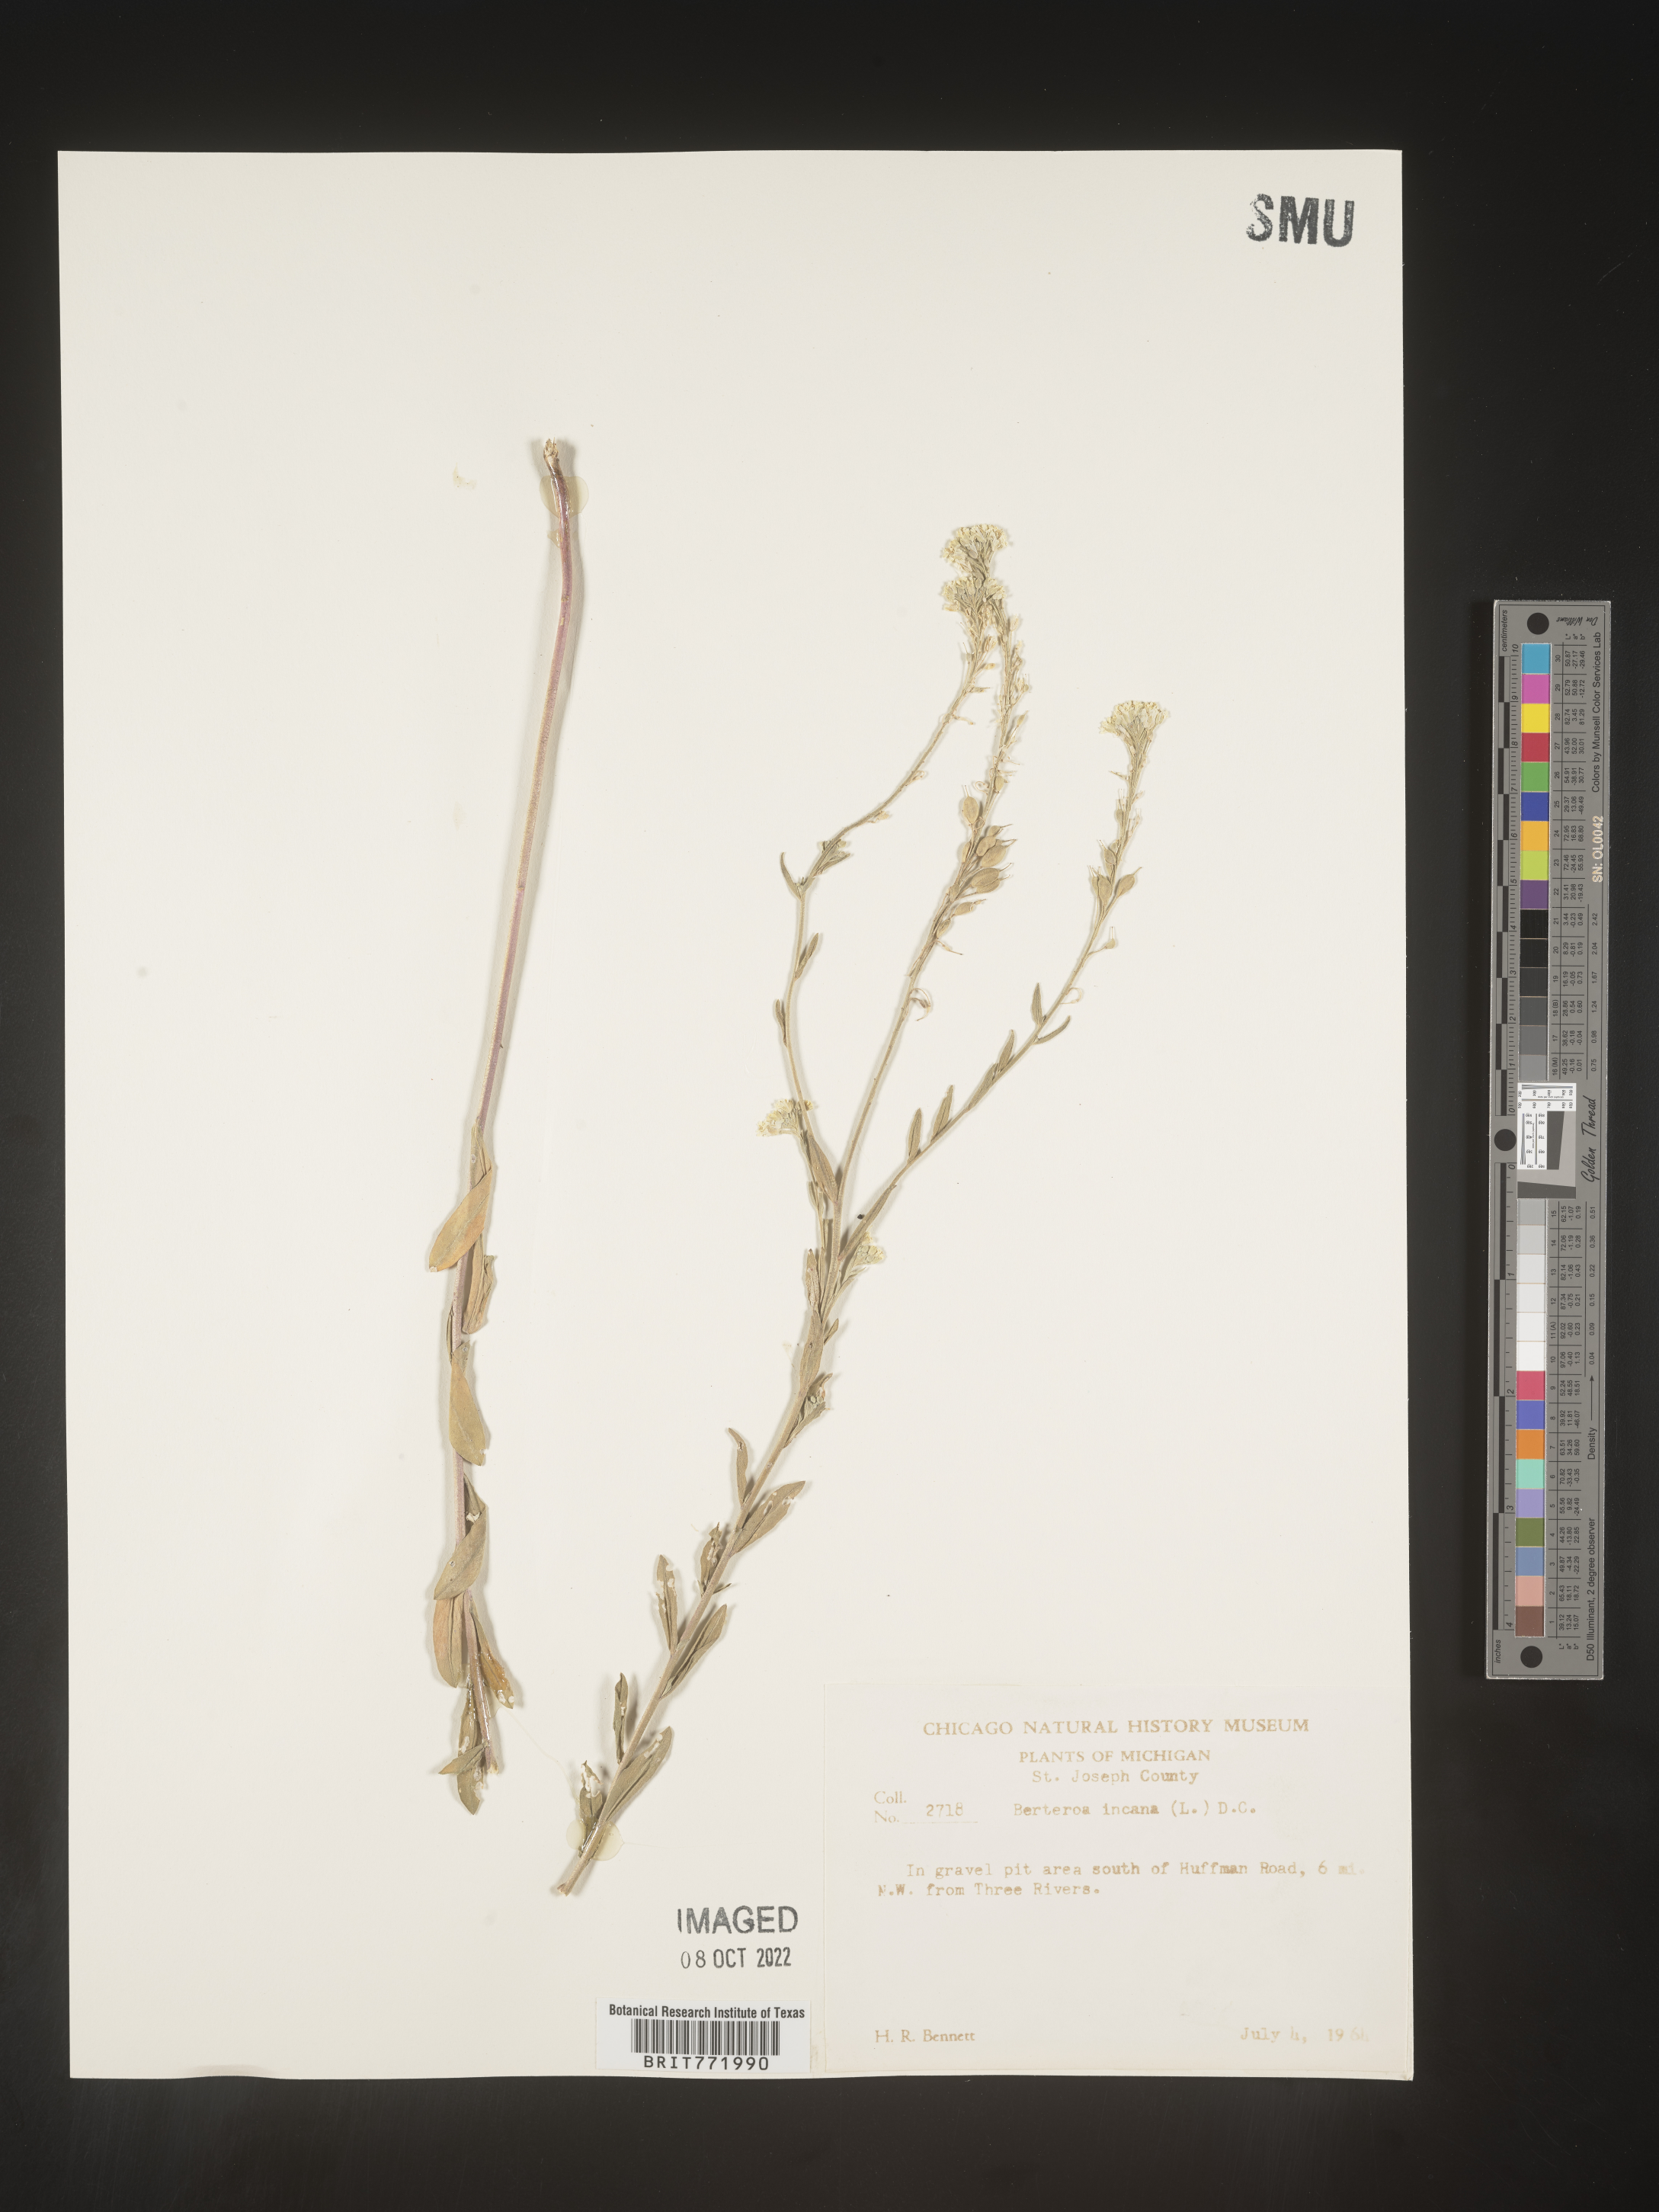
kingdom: Plantae
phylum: Tracheophyta
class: Magnoliopsida
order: Brassicales
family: Brassicaceae
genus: Berteroa
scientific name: Berteroa incana
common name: Hoary alison
